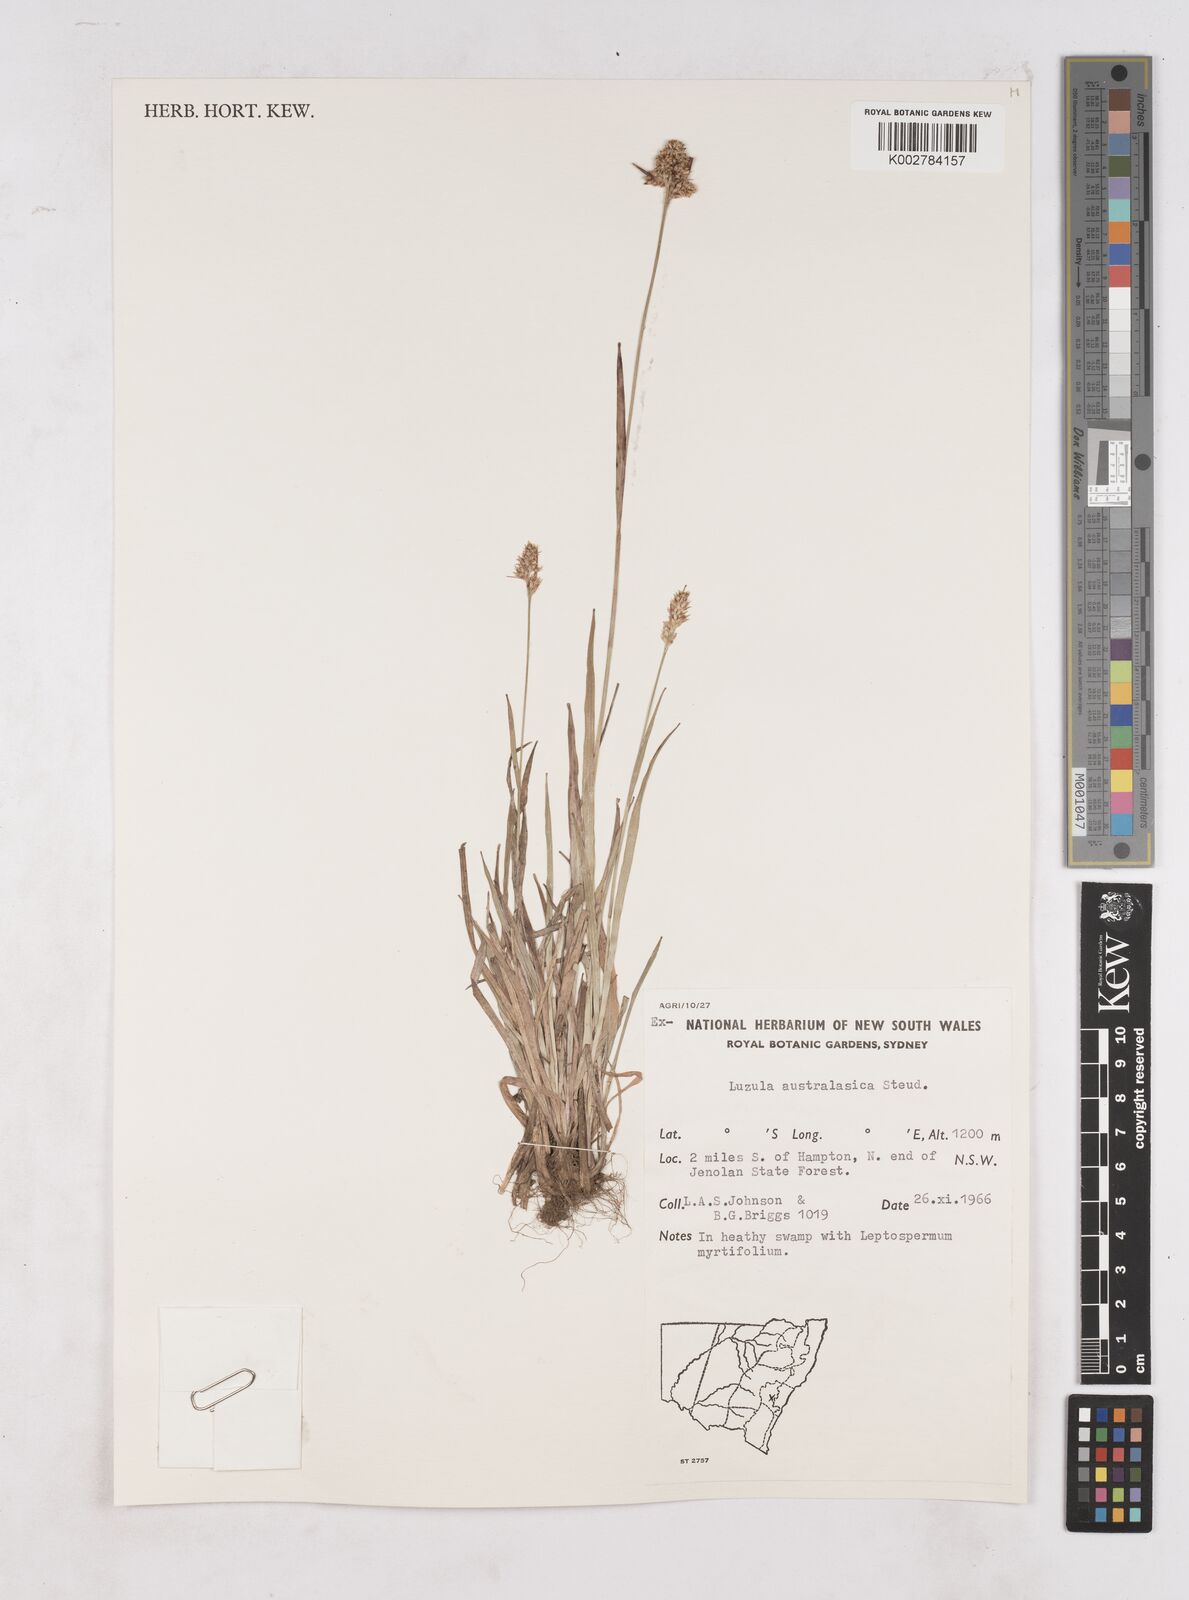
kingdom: Plantae
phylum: Tracheophyta
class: Liliopsida
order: Poales
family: Juncaceae
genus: Luzula
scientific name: Luzula australasica
